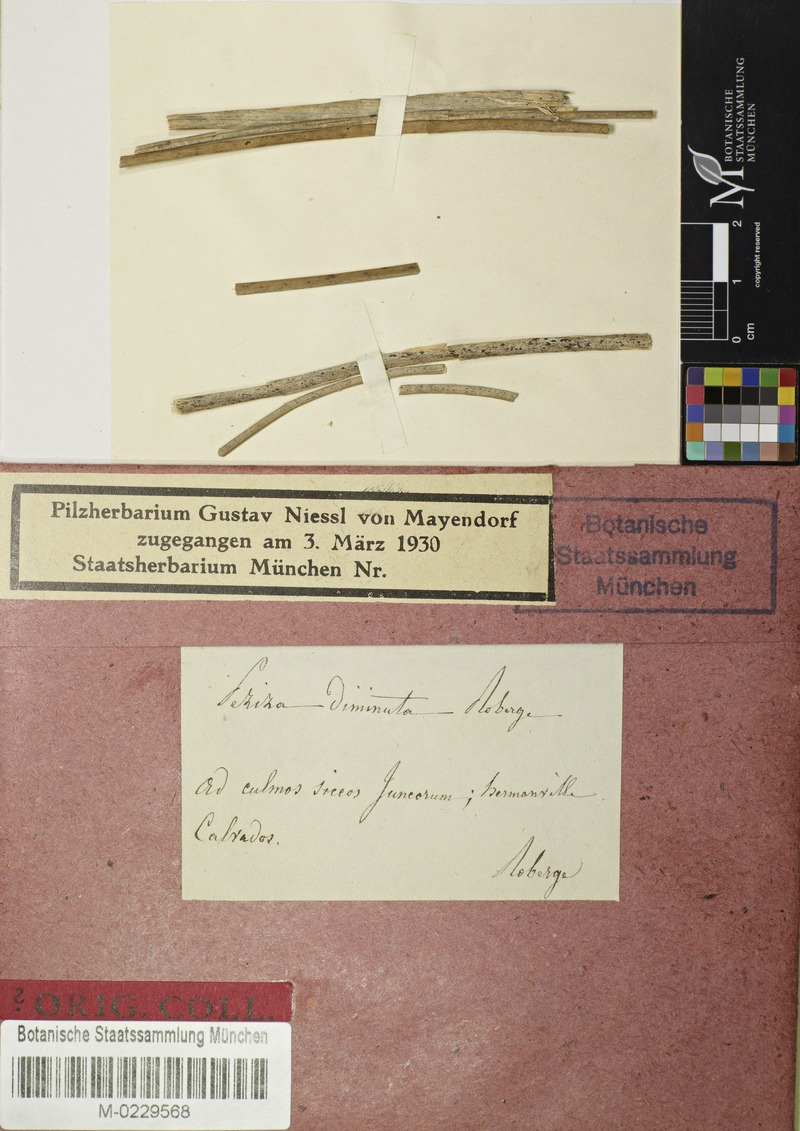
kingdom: Fungi
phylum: Ascomycota
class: Leotiomycetes
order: Helotiales
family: Lachnaceae
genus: Lachnum
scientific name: Lachnum diminutum
